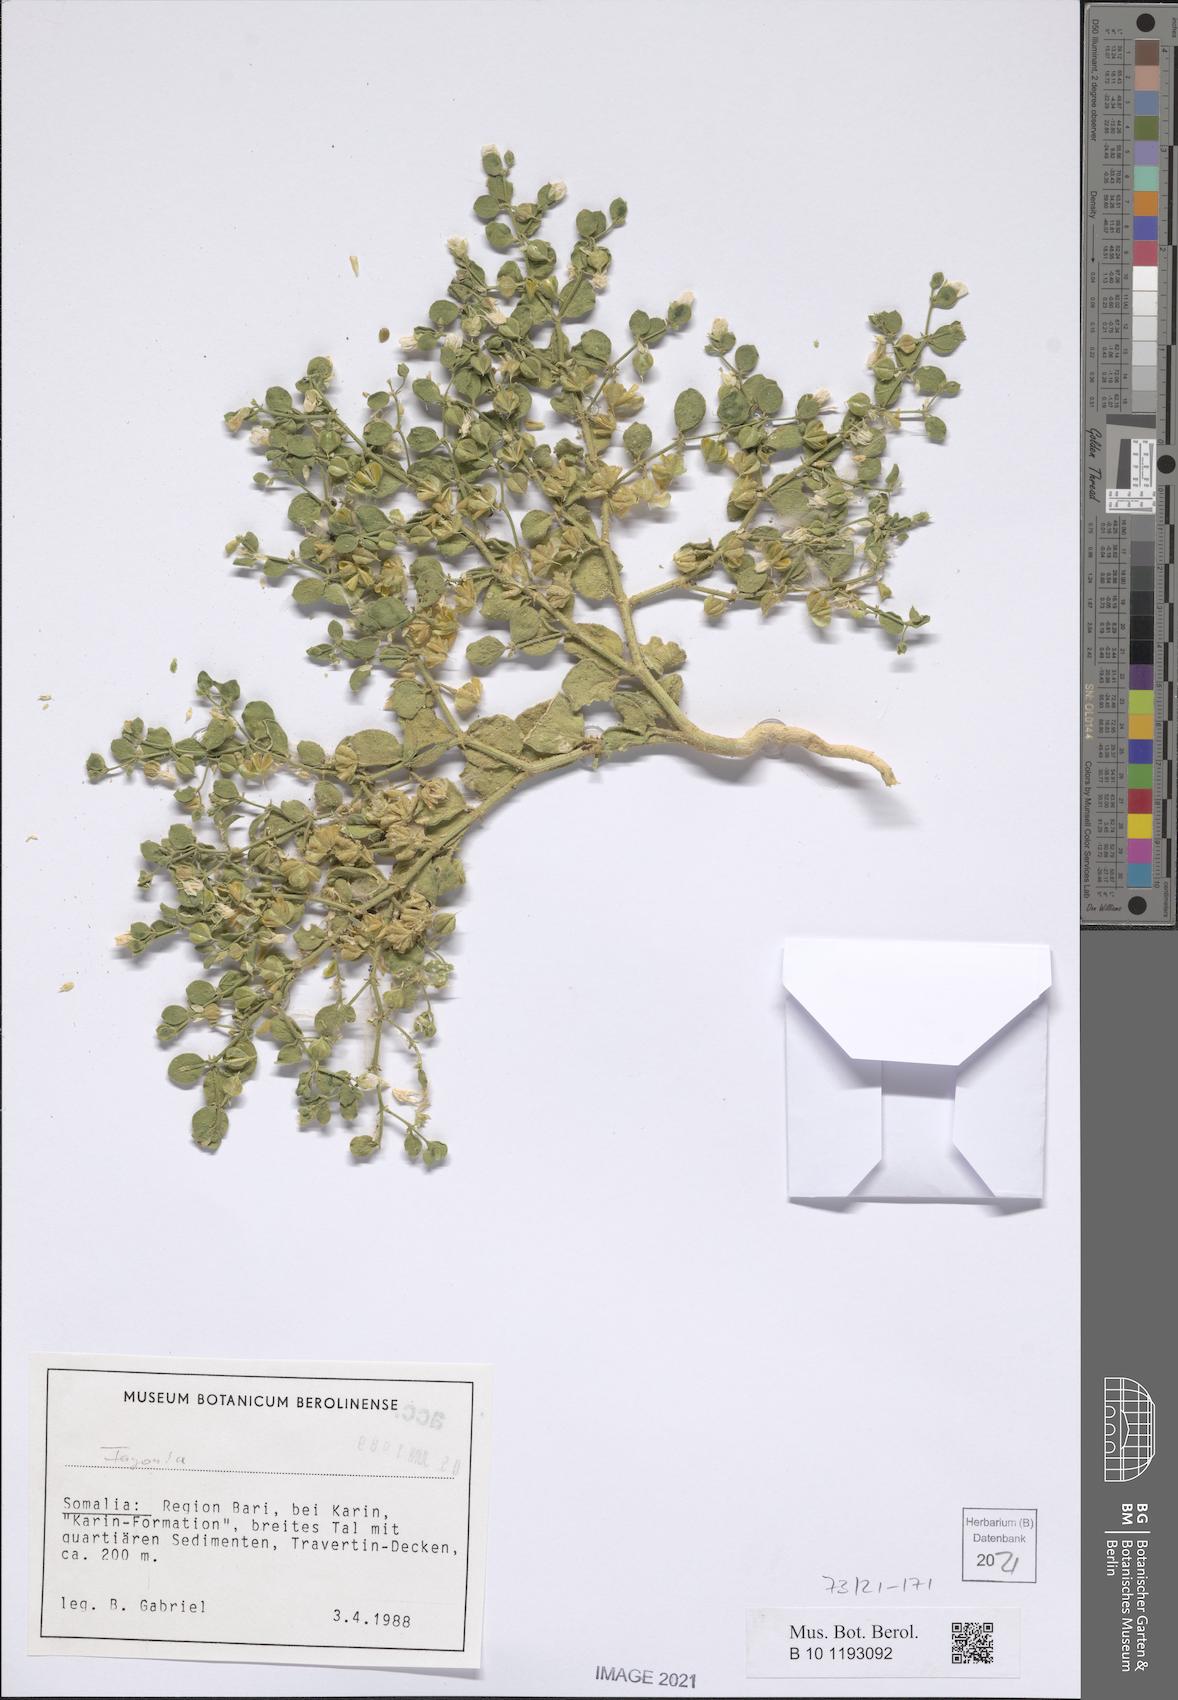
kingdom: Plantae
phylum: Tracheophyta
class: Magnoliopsida
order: Zygophyllales
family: Zygophyllaceae
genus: Fagonia
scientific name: Fagonia
